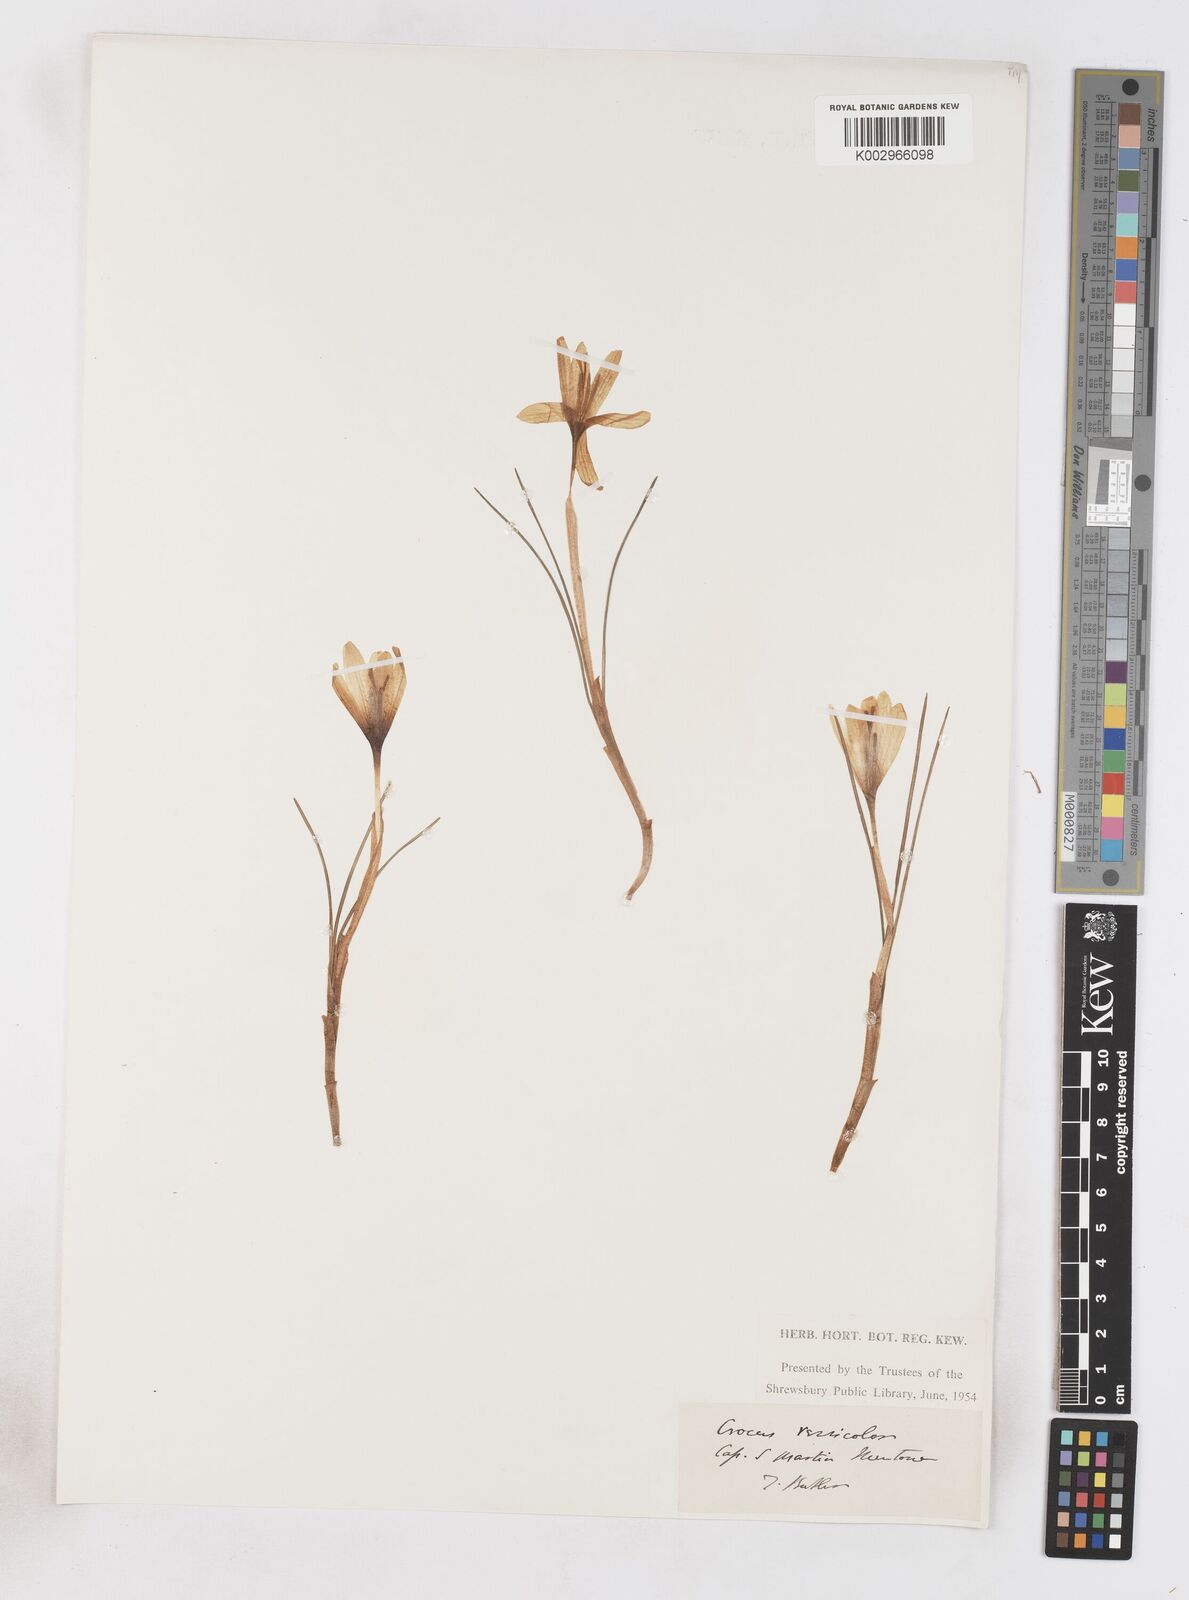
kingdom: Plantae
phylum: Tracheophyta
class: Liliopsida
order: Asparagales
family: Iridaceae
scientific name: Iridaceae
